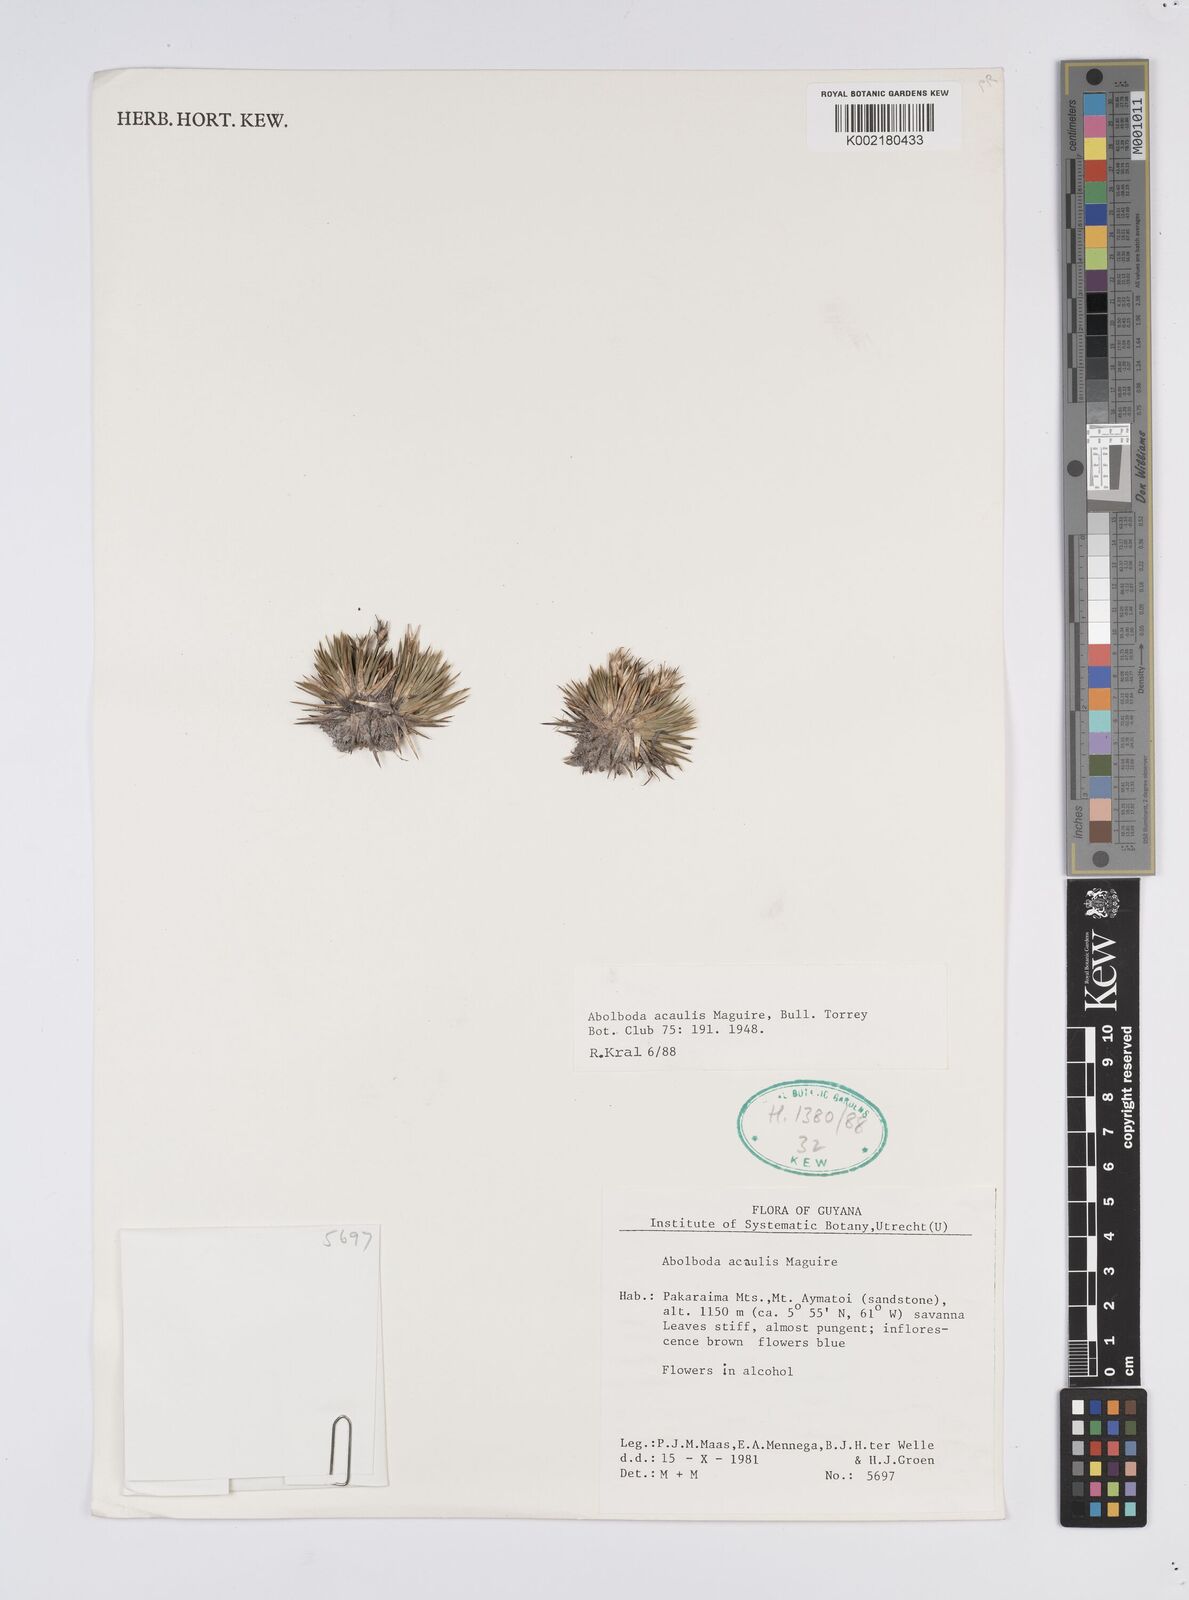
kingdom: Plantae
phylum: Tracheophyta
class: Liliopsida
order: Poales
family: Xyridaceae
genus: Abolboda
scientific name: Abolboda acaulis
